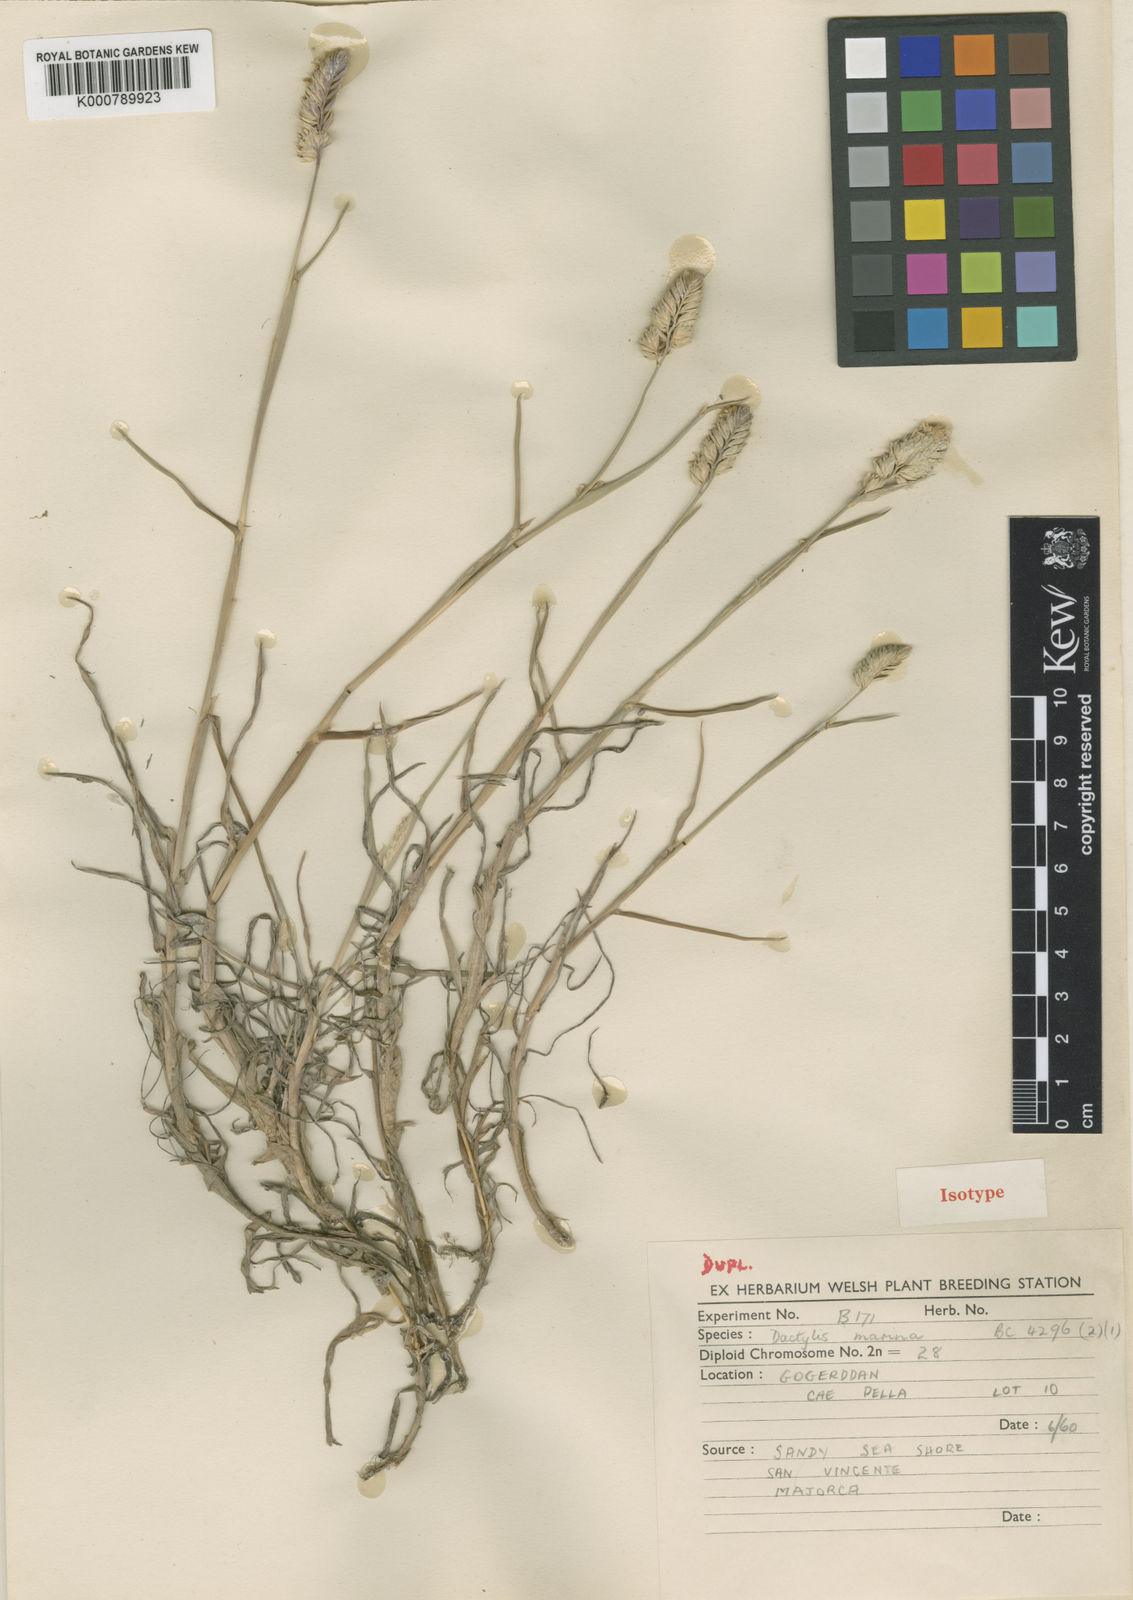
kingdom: Plantae
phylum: Tracheophyta
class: Liliopsida
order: Poales
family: Poaceae
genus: Dactylis
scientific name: Dactylis glomerata
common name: Orchardgrass
